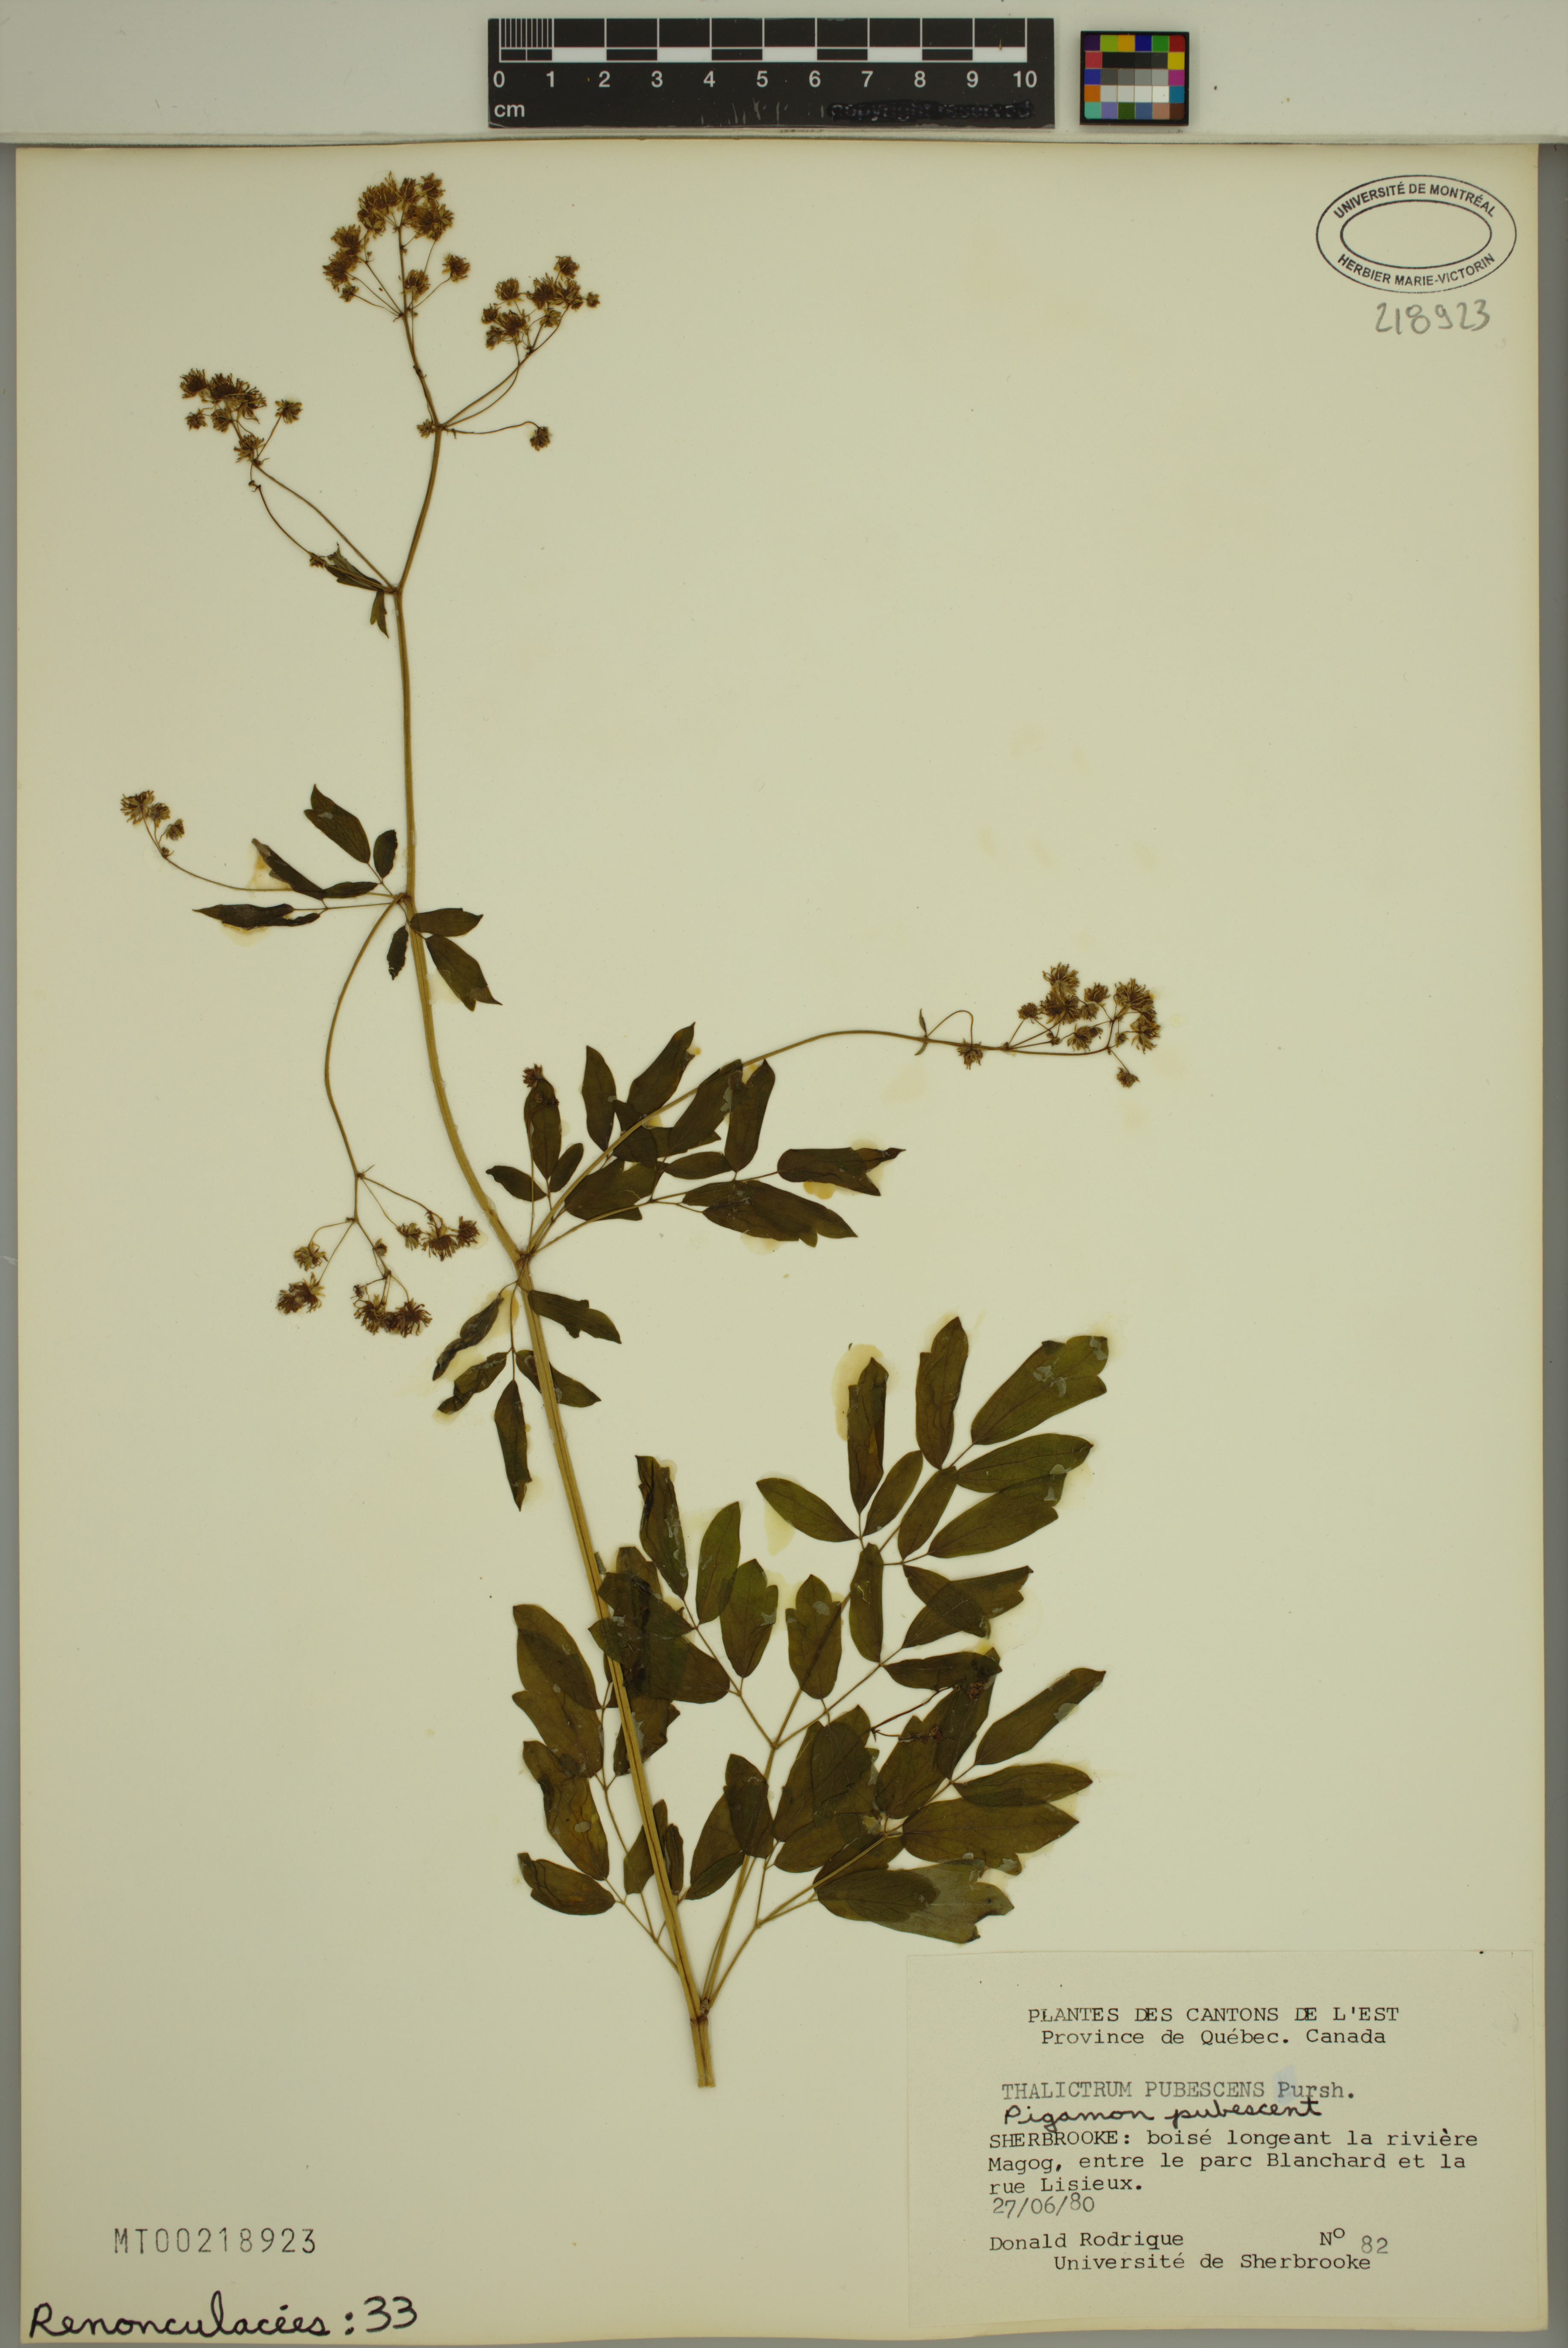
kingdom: Plantae
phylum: Tracheophyta
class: Magnoliopsida
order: Ranunculales
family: Ranunculaceae
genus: Thalictrum
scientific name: Thalictrum pubescens
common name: King-of-the-meadow
